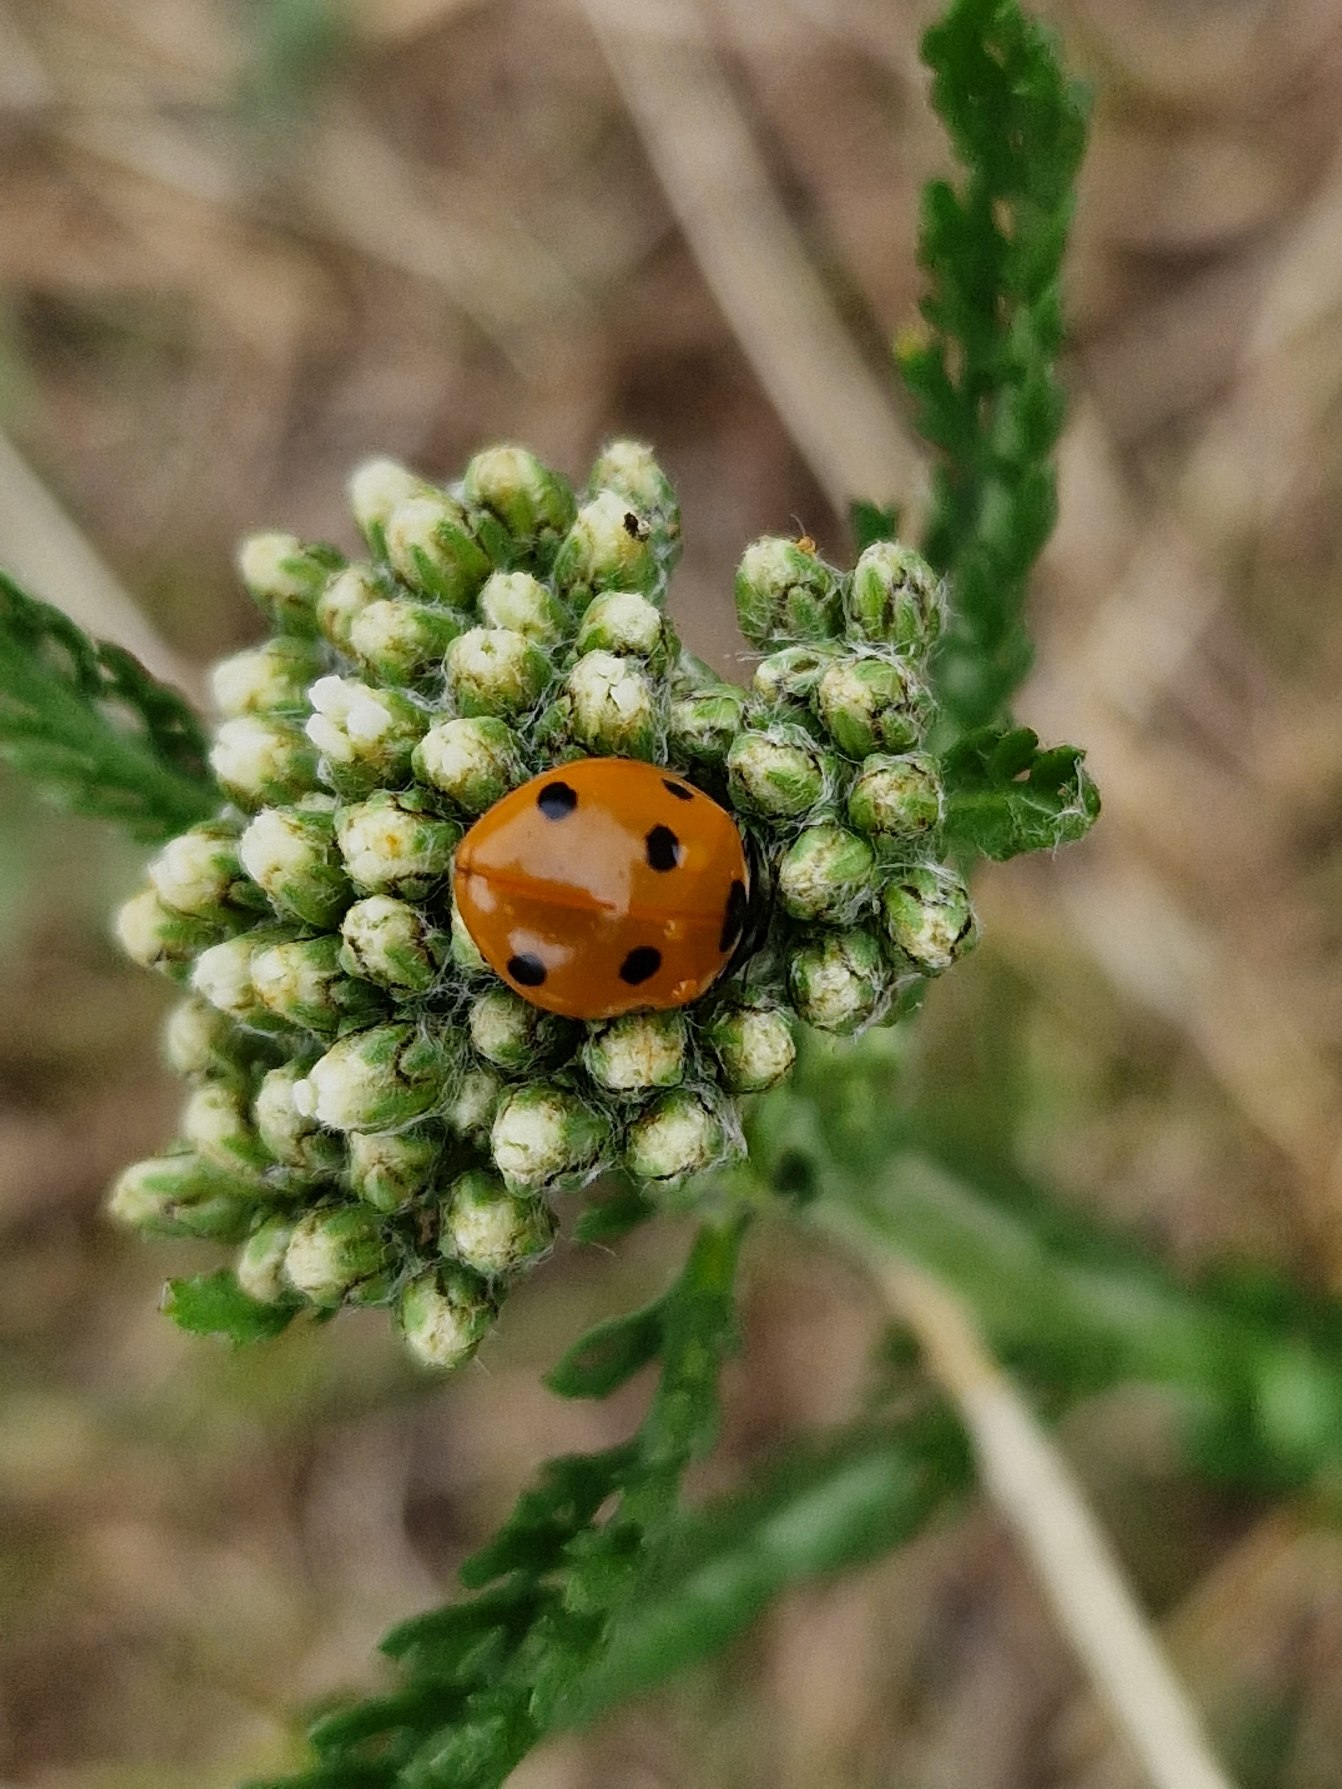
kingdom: Animalia
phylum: Arthropoda
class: Insecta
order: Coleoptera
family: Coccinellidae
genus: Coccinella
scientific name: Coccinella septempunctata
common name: Syvplettet mariehøne
